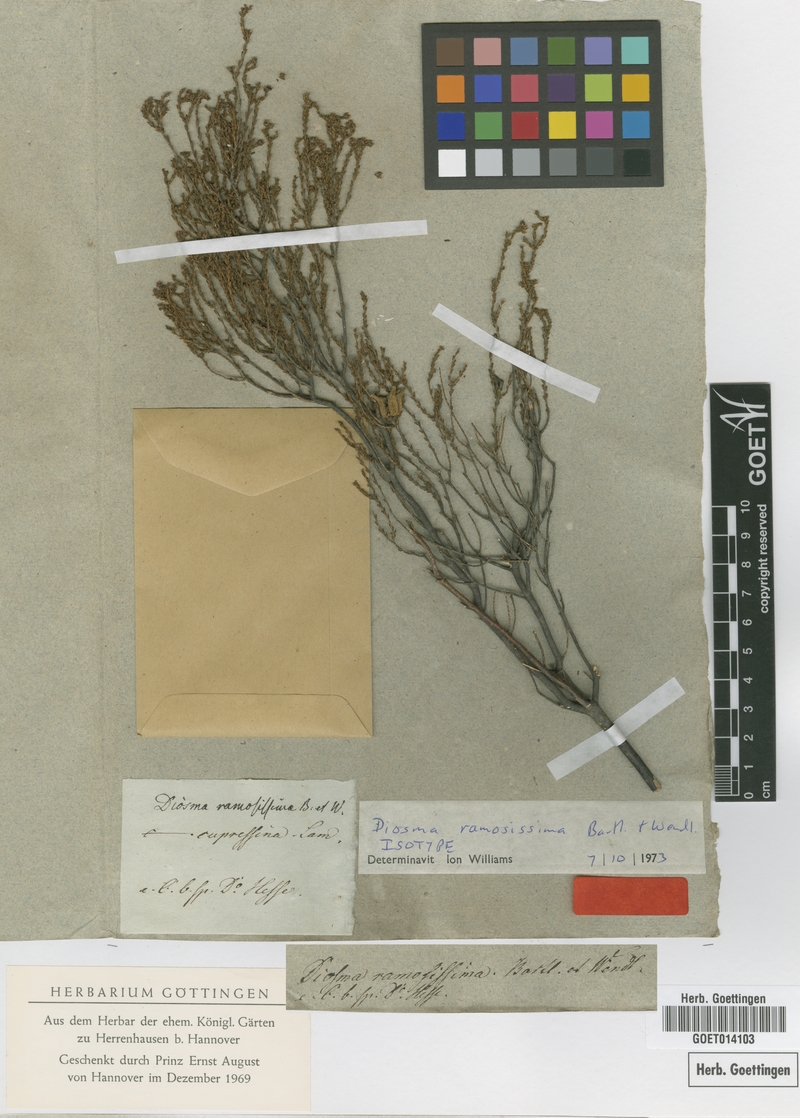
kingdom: Plantae
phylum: Tracheophyta
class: Magnoliopsida
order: Sapindales
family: Rutaceae
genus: Diosma
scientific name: Diosma ramosissima
